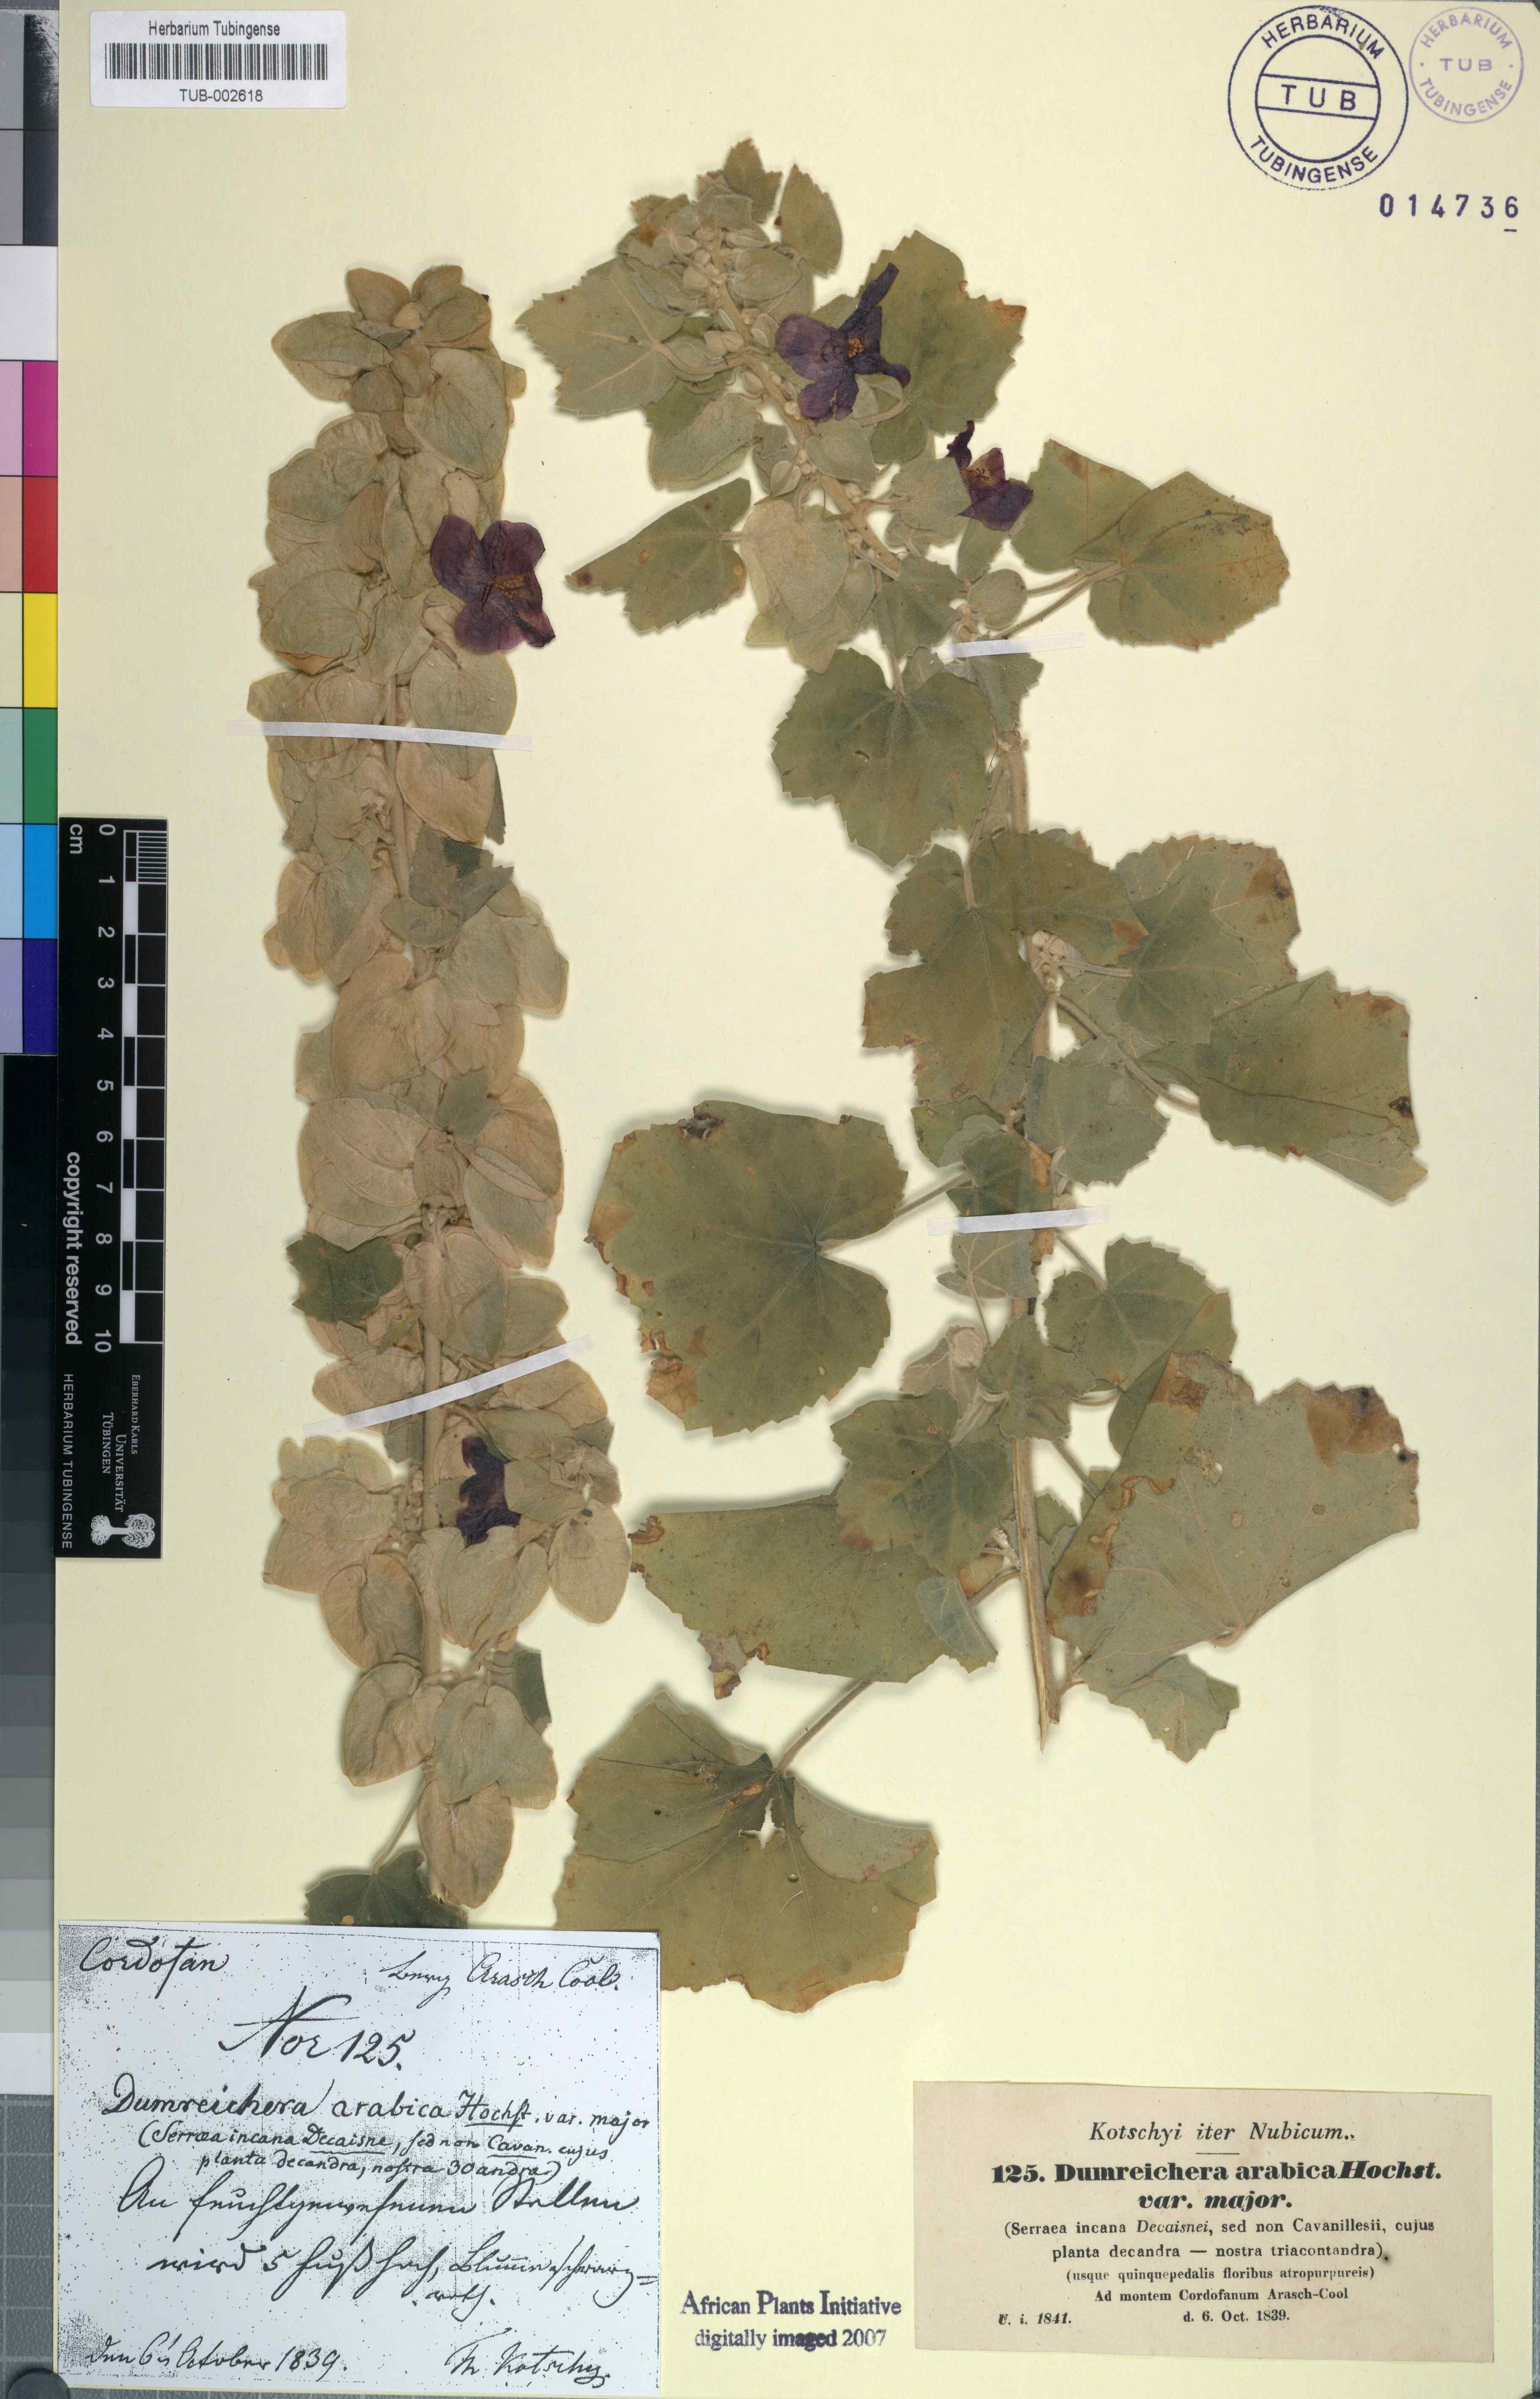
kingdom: Plantae
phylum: Tracheophyta
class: Magnoliopsida
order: Malvales
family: Malvaceae
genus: Senra
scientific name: Senra incana
